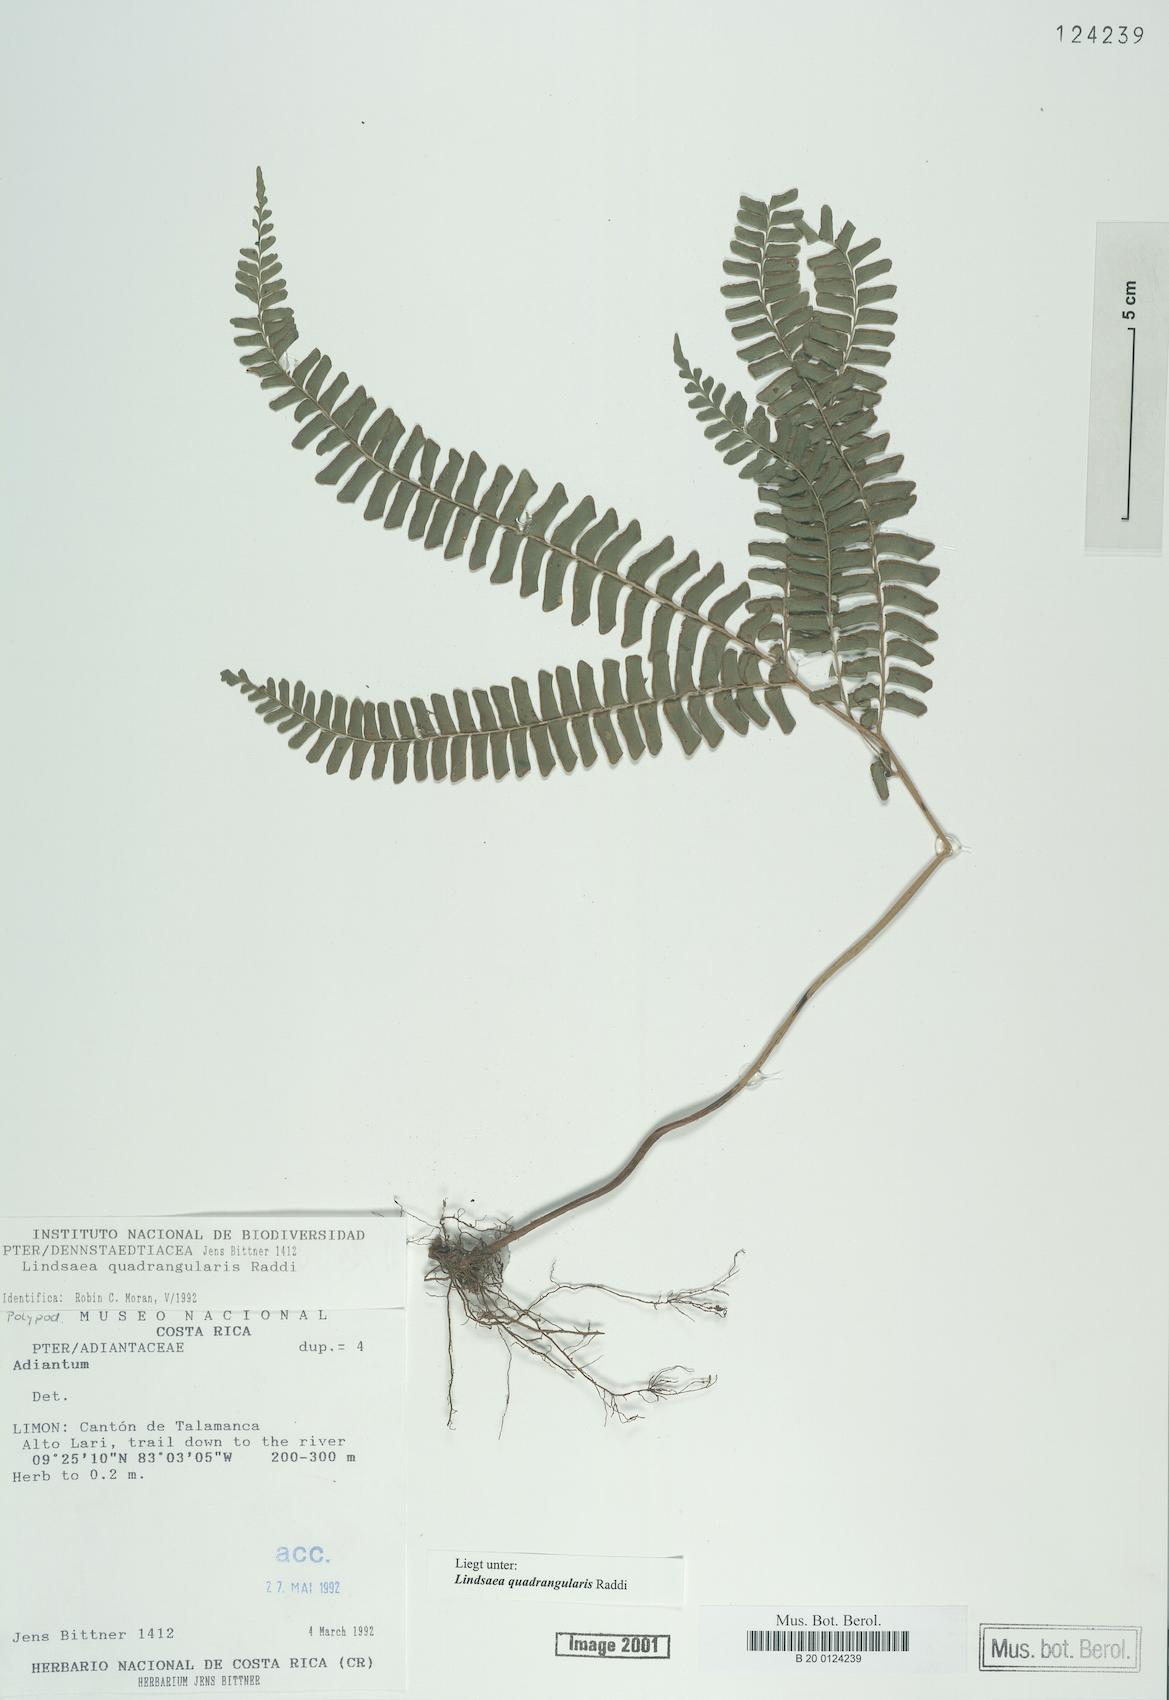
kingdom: Plantae
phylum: Tracheophyta
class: Polypodiopsida
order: Polypodiales
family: Lindsaeaceae
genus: Lindsaea
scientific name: Lindsaea quadrangularis
